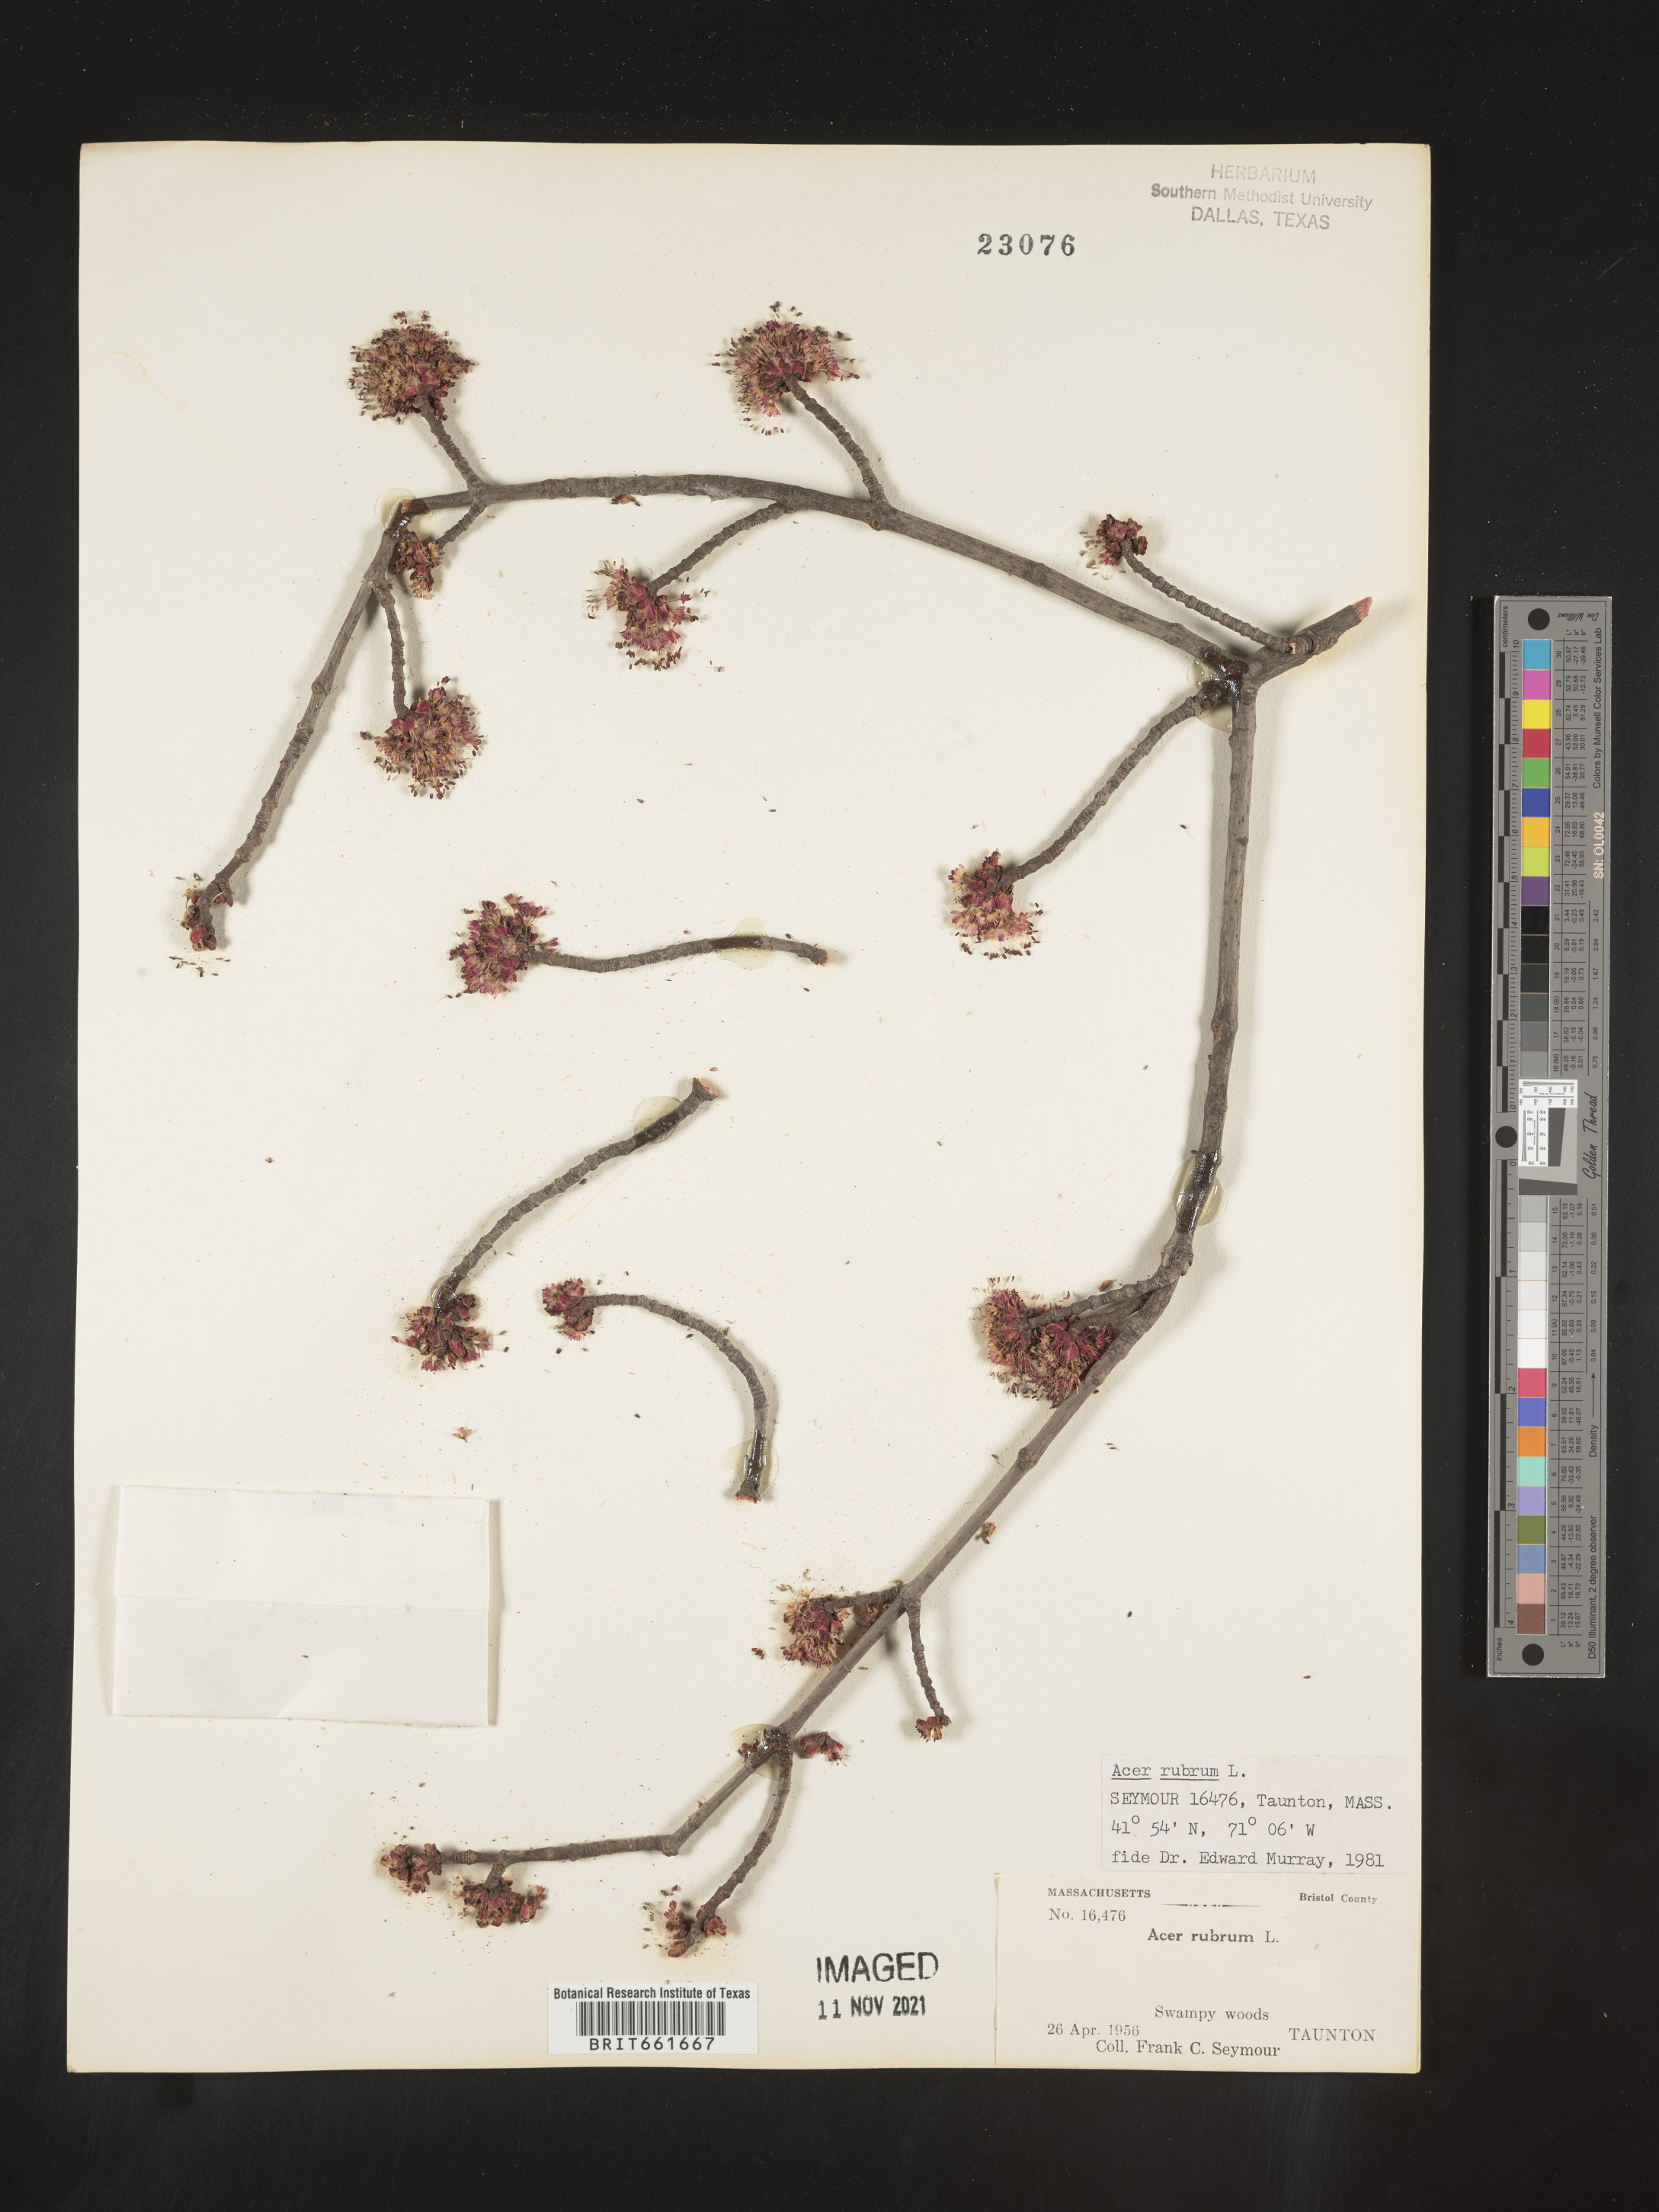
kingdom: Plantae
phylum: Tracheophyta
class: Magnoliopsida
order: Sapindales
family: Sapindaceae
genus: Acer
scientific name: Acer rubrum
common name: Red maple
